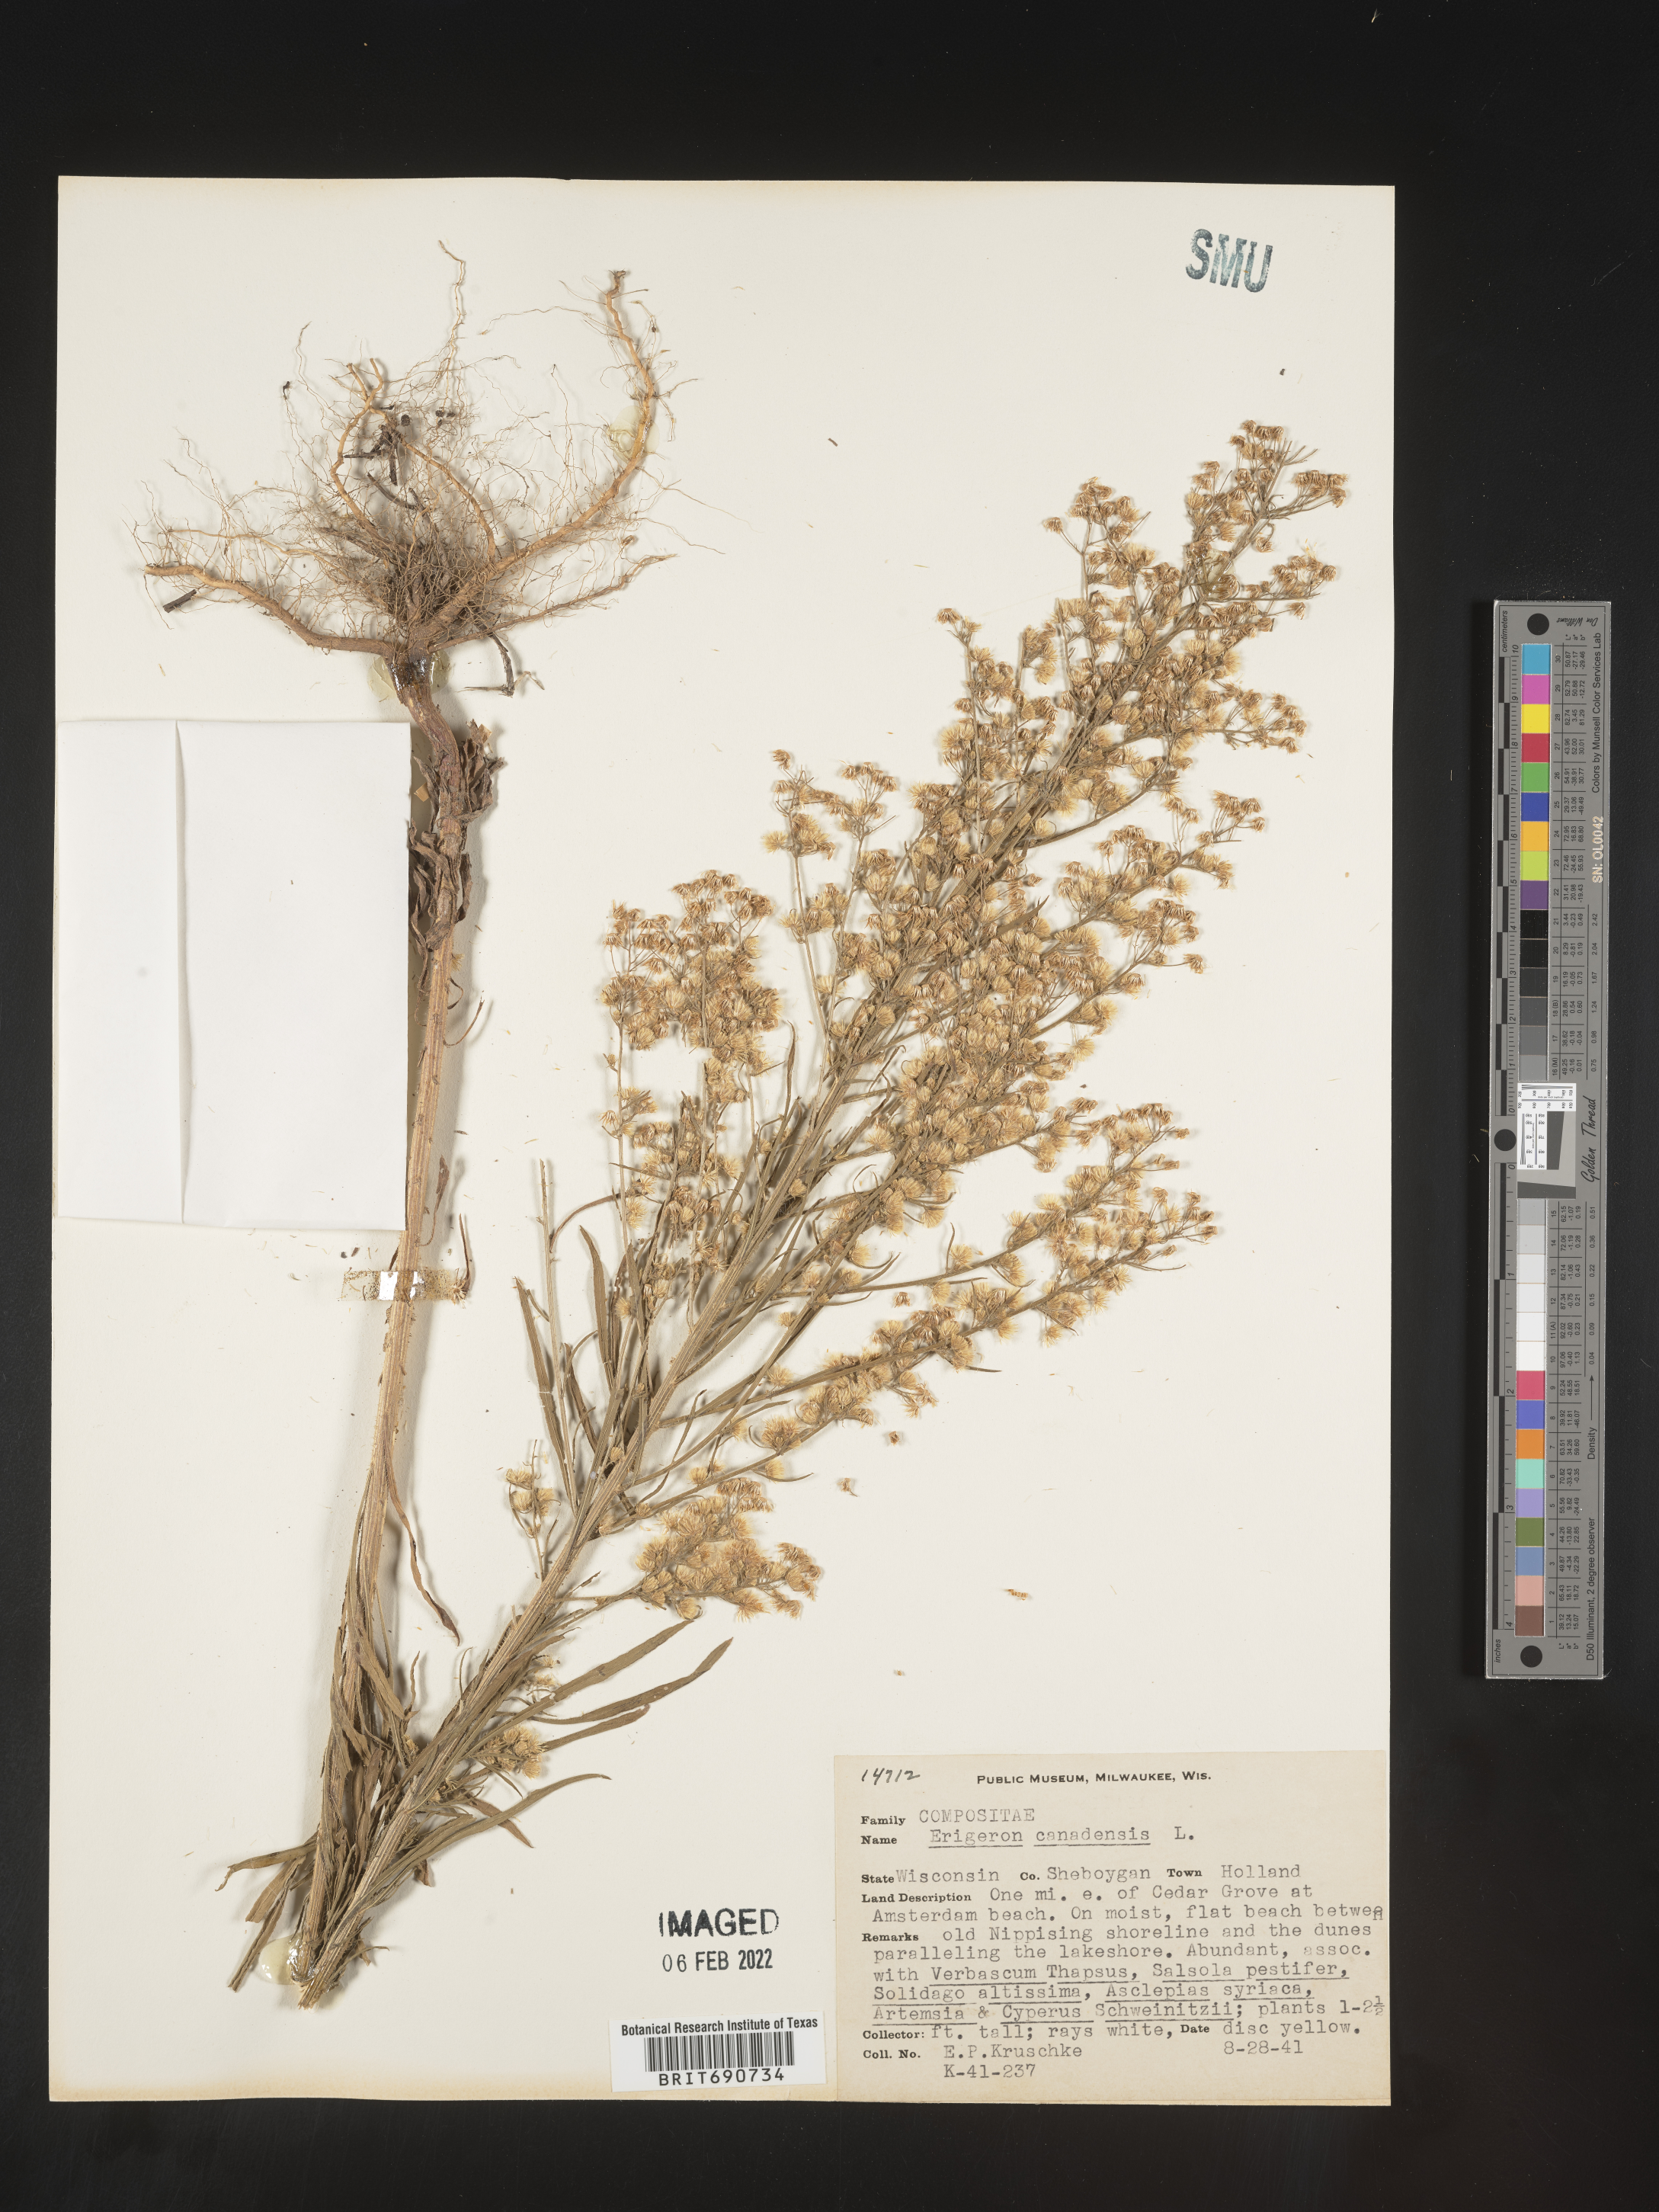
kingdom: Plantae
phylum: Tracheophyta
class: Magnoliopsida
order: Asterales
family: Asteraceae
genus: Erigeron
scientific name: Erigeron canadensis
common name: Canadian fleabane
